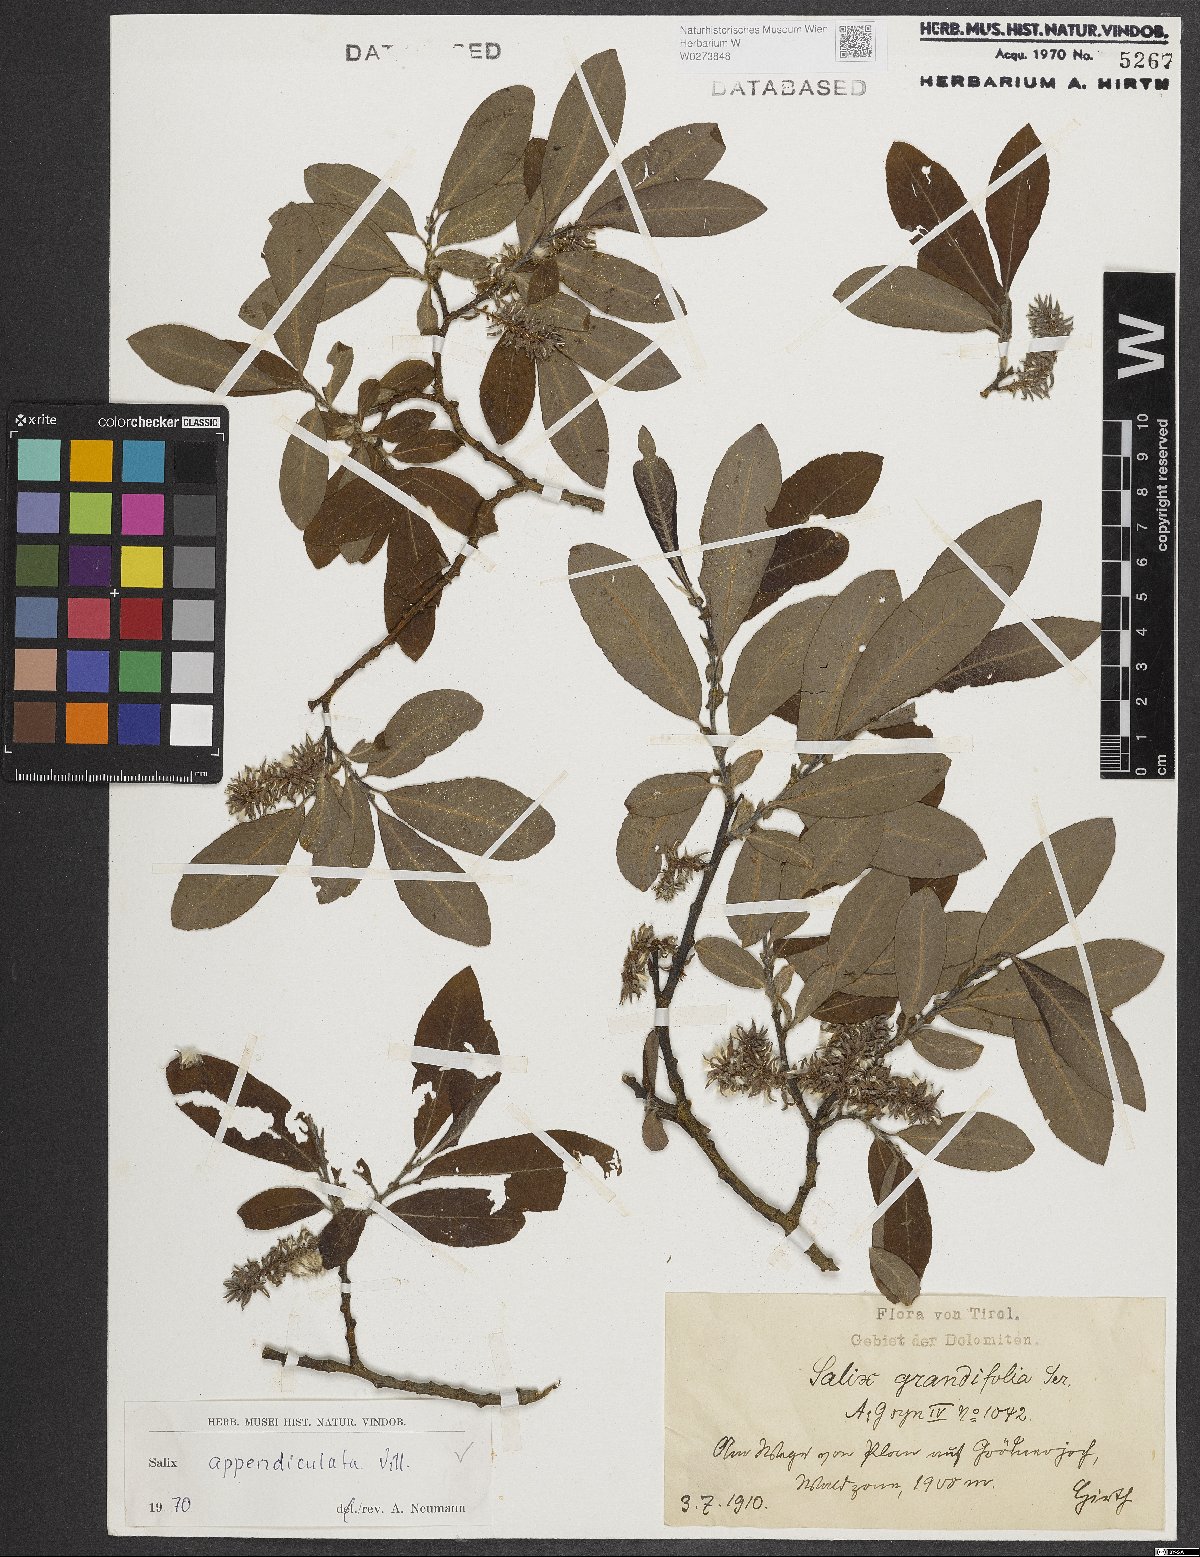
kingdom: Plantae
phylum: Tracheophyta
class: Magnoliopsida
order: Malpighiales
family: Salicaceae
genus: Salix
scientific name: Salix appendiculata
